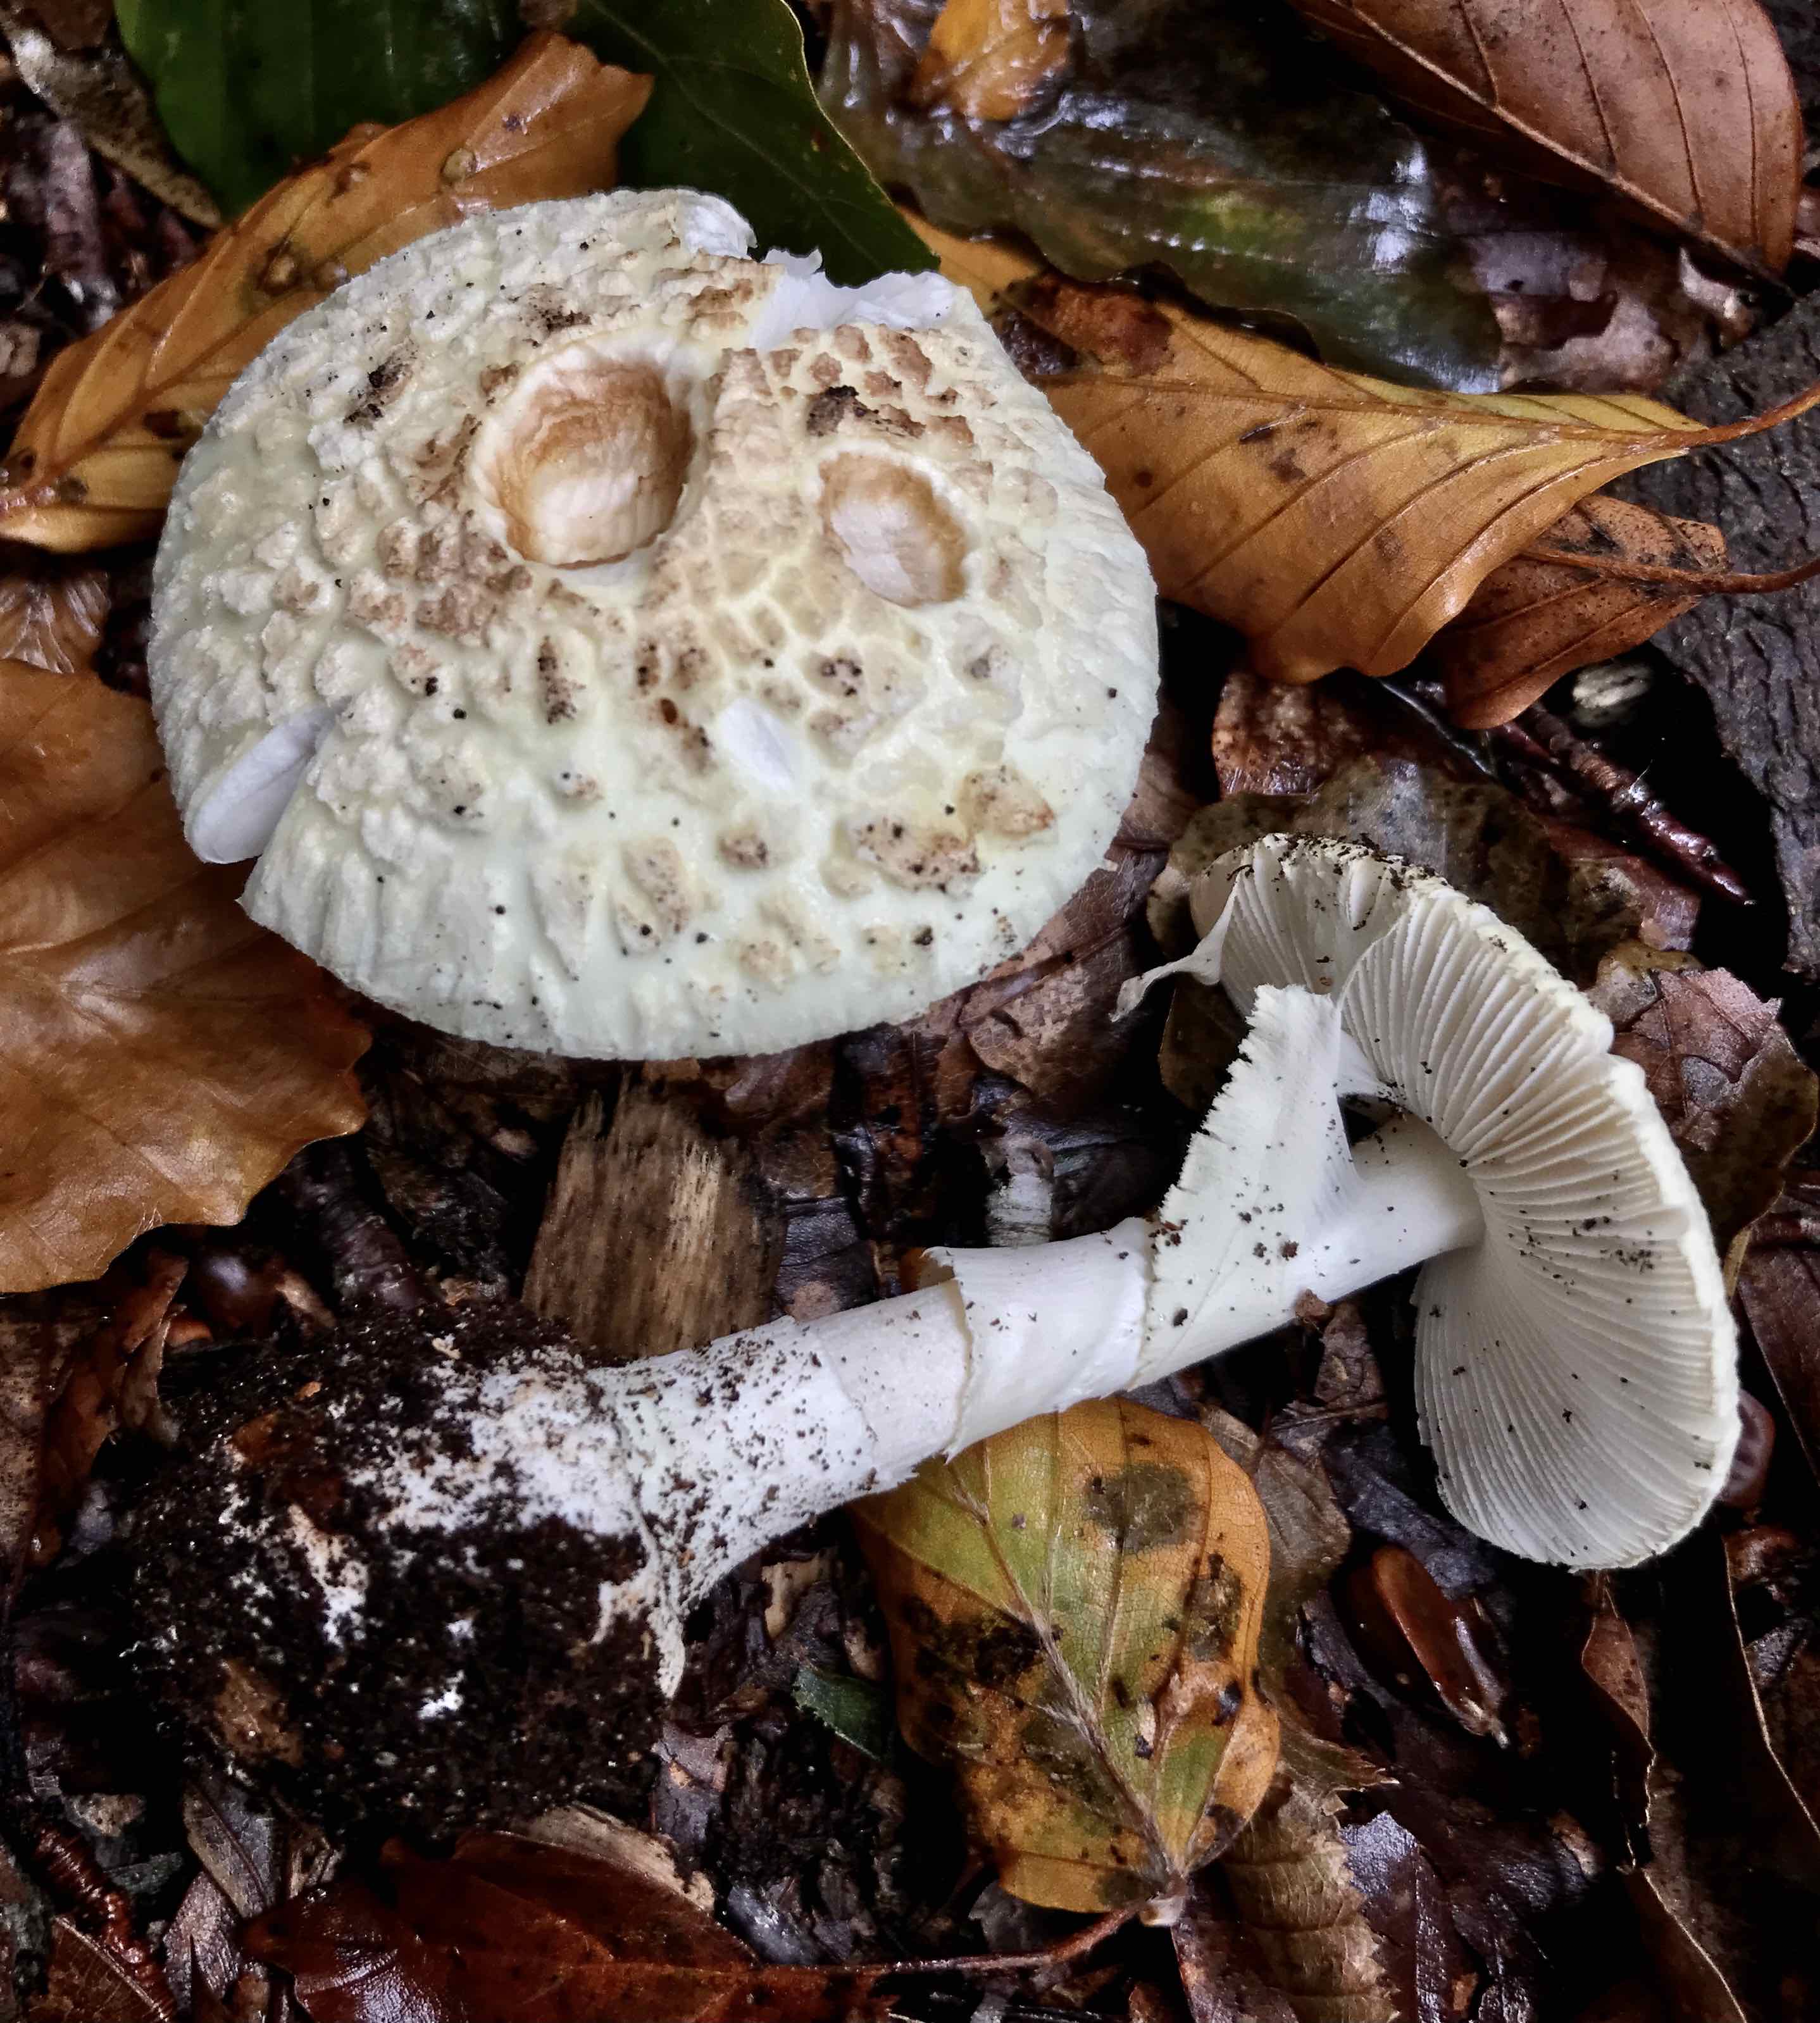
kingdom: Fungi
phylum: Basidiomycota
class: Agaricomycetes
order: Agaricales
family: Amanitaceae
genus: Amanita
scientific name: Amanita citrina
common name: kugleknoldet fluesvamp
